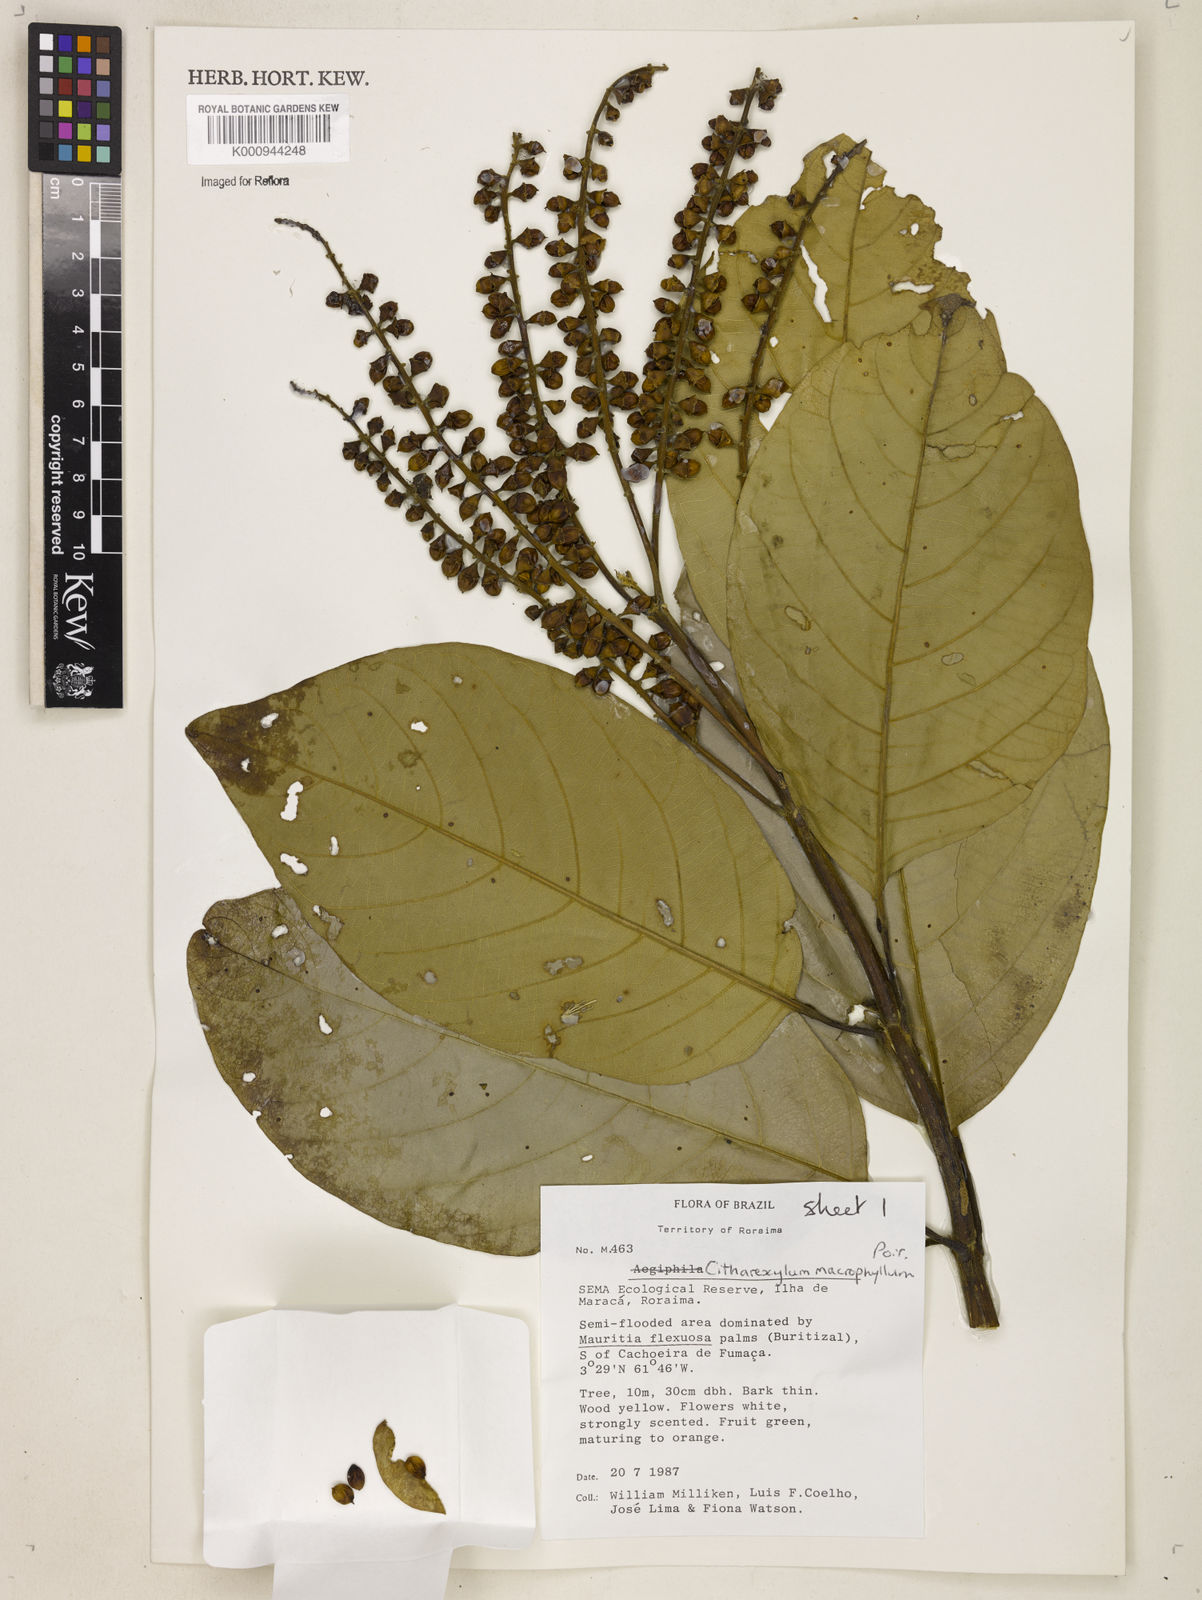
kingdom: Plantae
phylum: Tracheophyta
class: Magnoliopsida
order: Lamiales
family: Verbenaceae
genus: Citharexylum
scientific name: Citharexylum spinosum
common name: Fiddlewood
